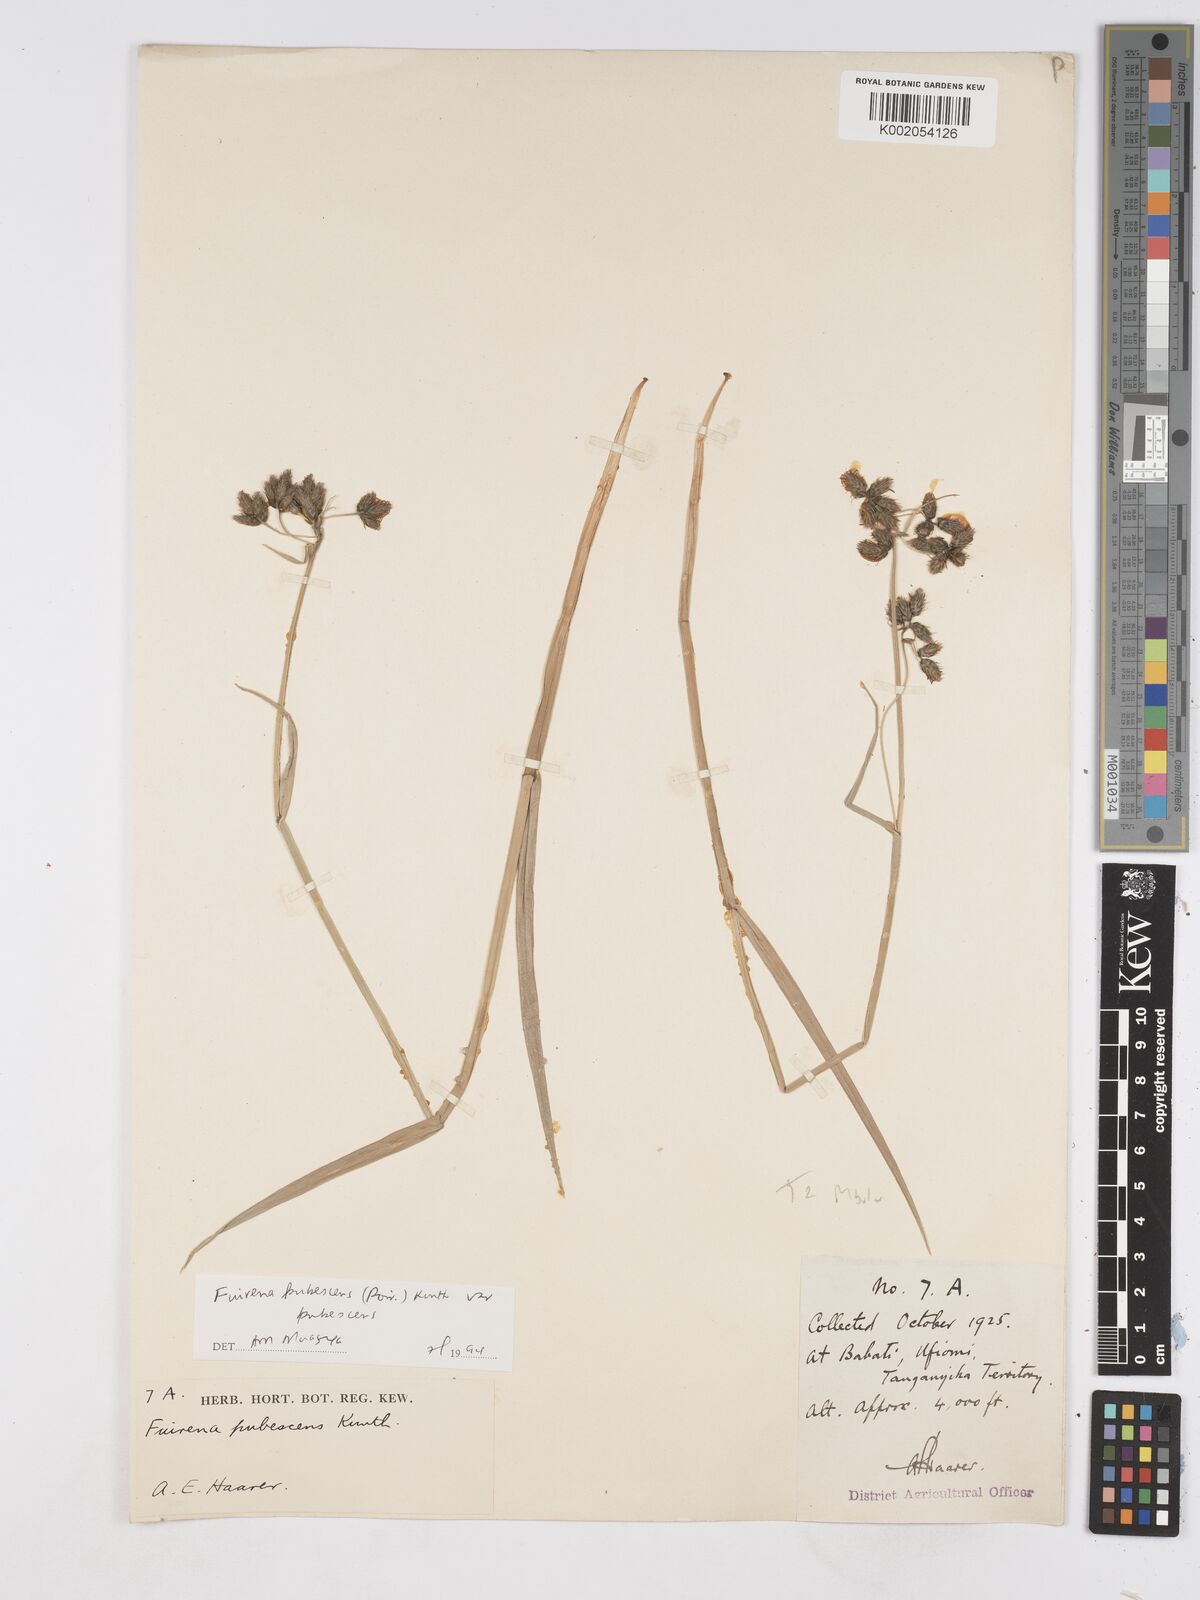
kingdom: Plantae
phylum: Tracheophyta
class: Liliopsida
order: Poales
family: Cyperaceae
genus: Fuirena
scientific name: Fuirena pubescens
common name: Hairy sedge
